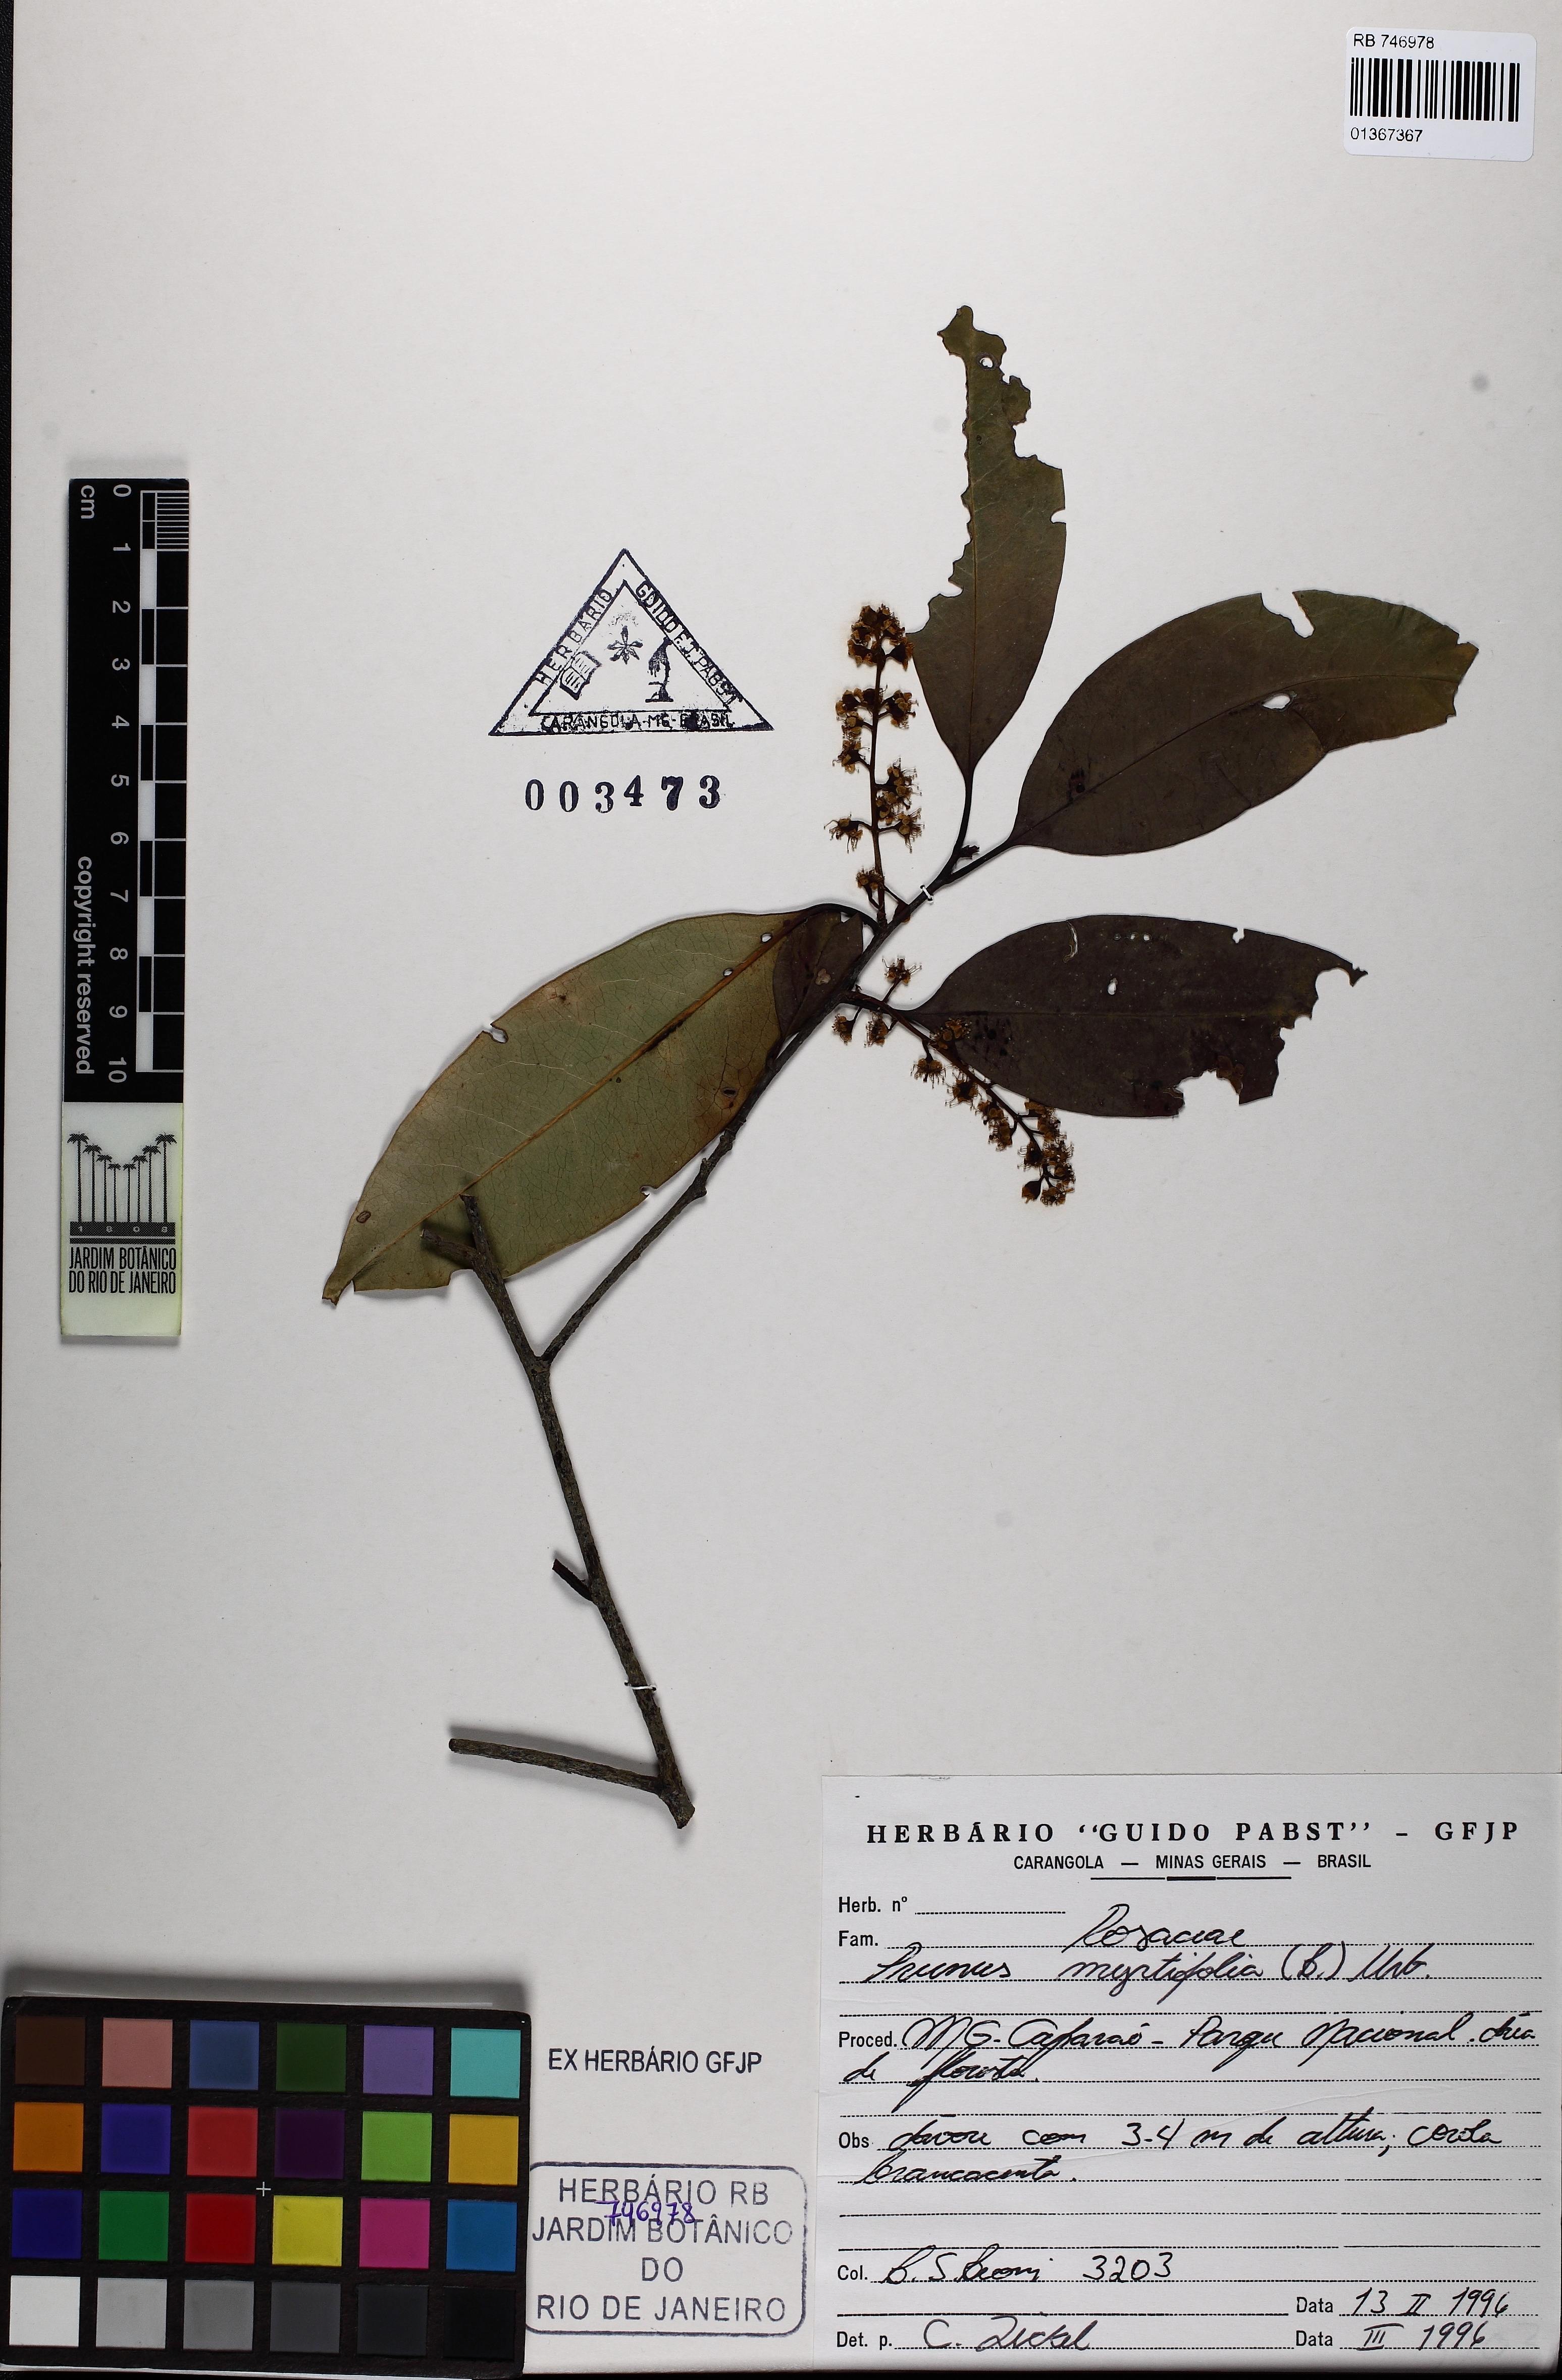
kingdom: Plantae
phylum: Tracheophyta
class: Magnoliopsida
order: Rosales
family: Rosaceae
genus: Prunus
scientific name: Prunus myrtifolia
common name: West indies cherry
